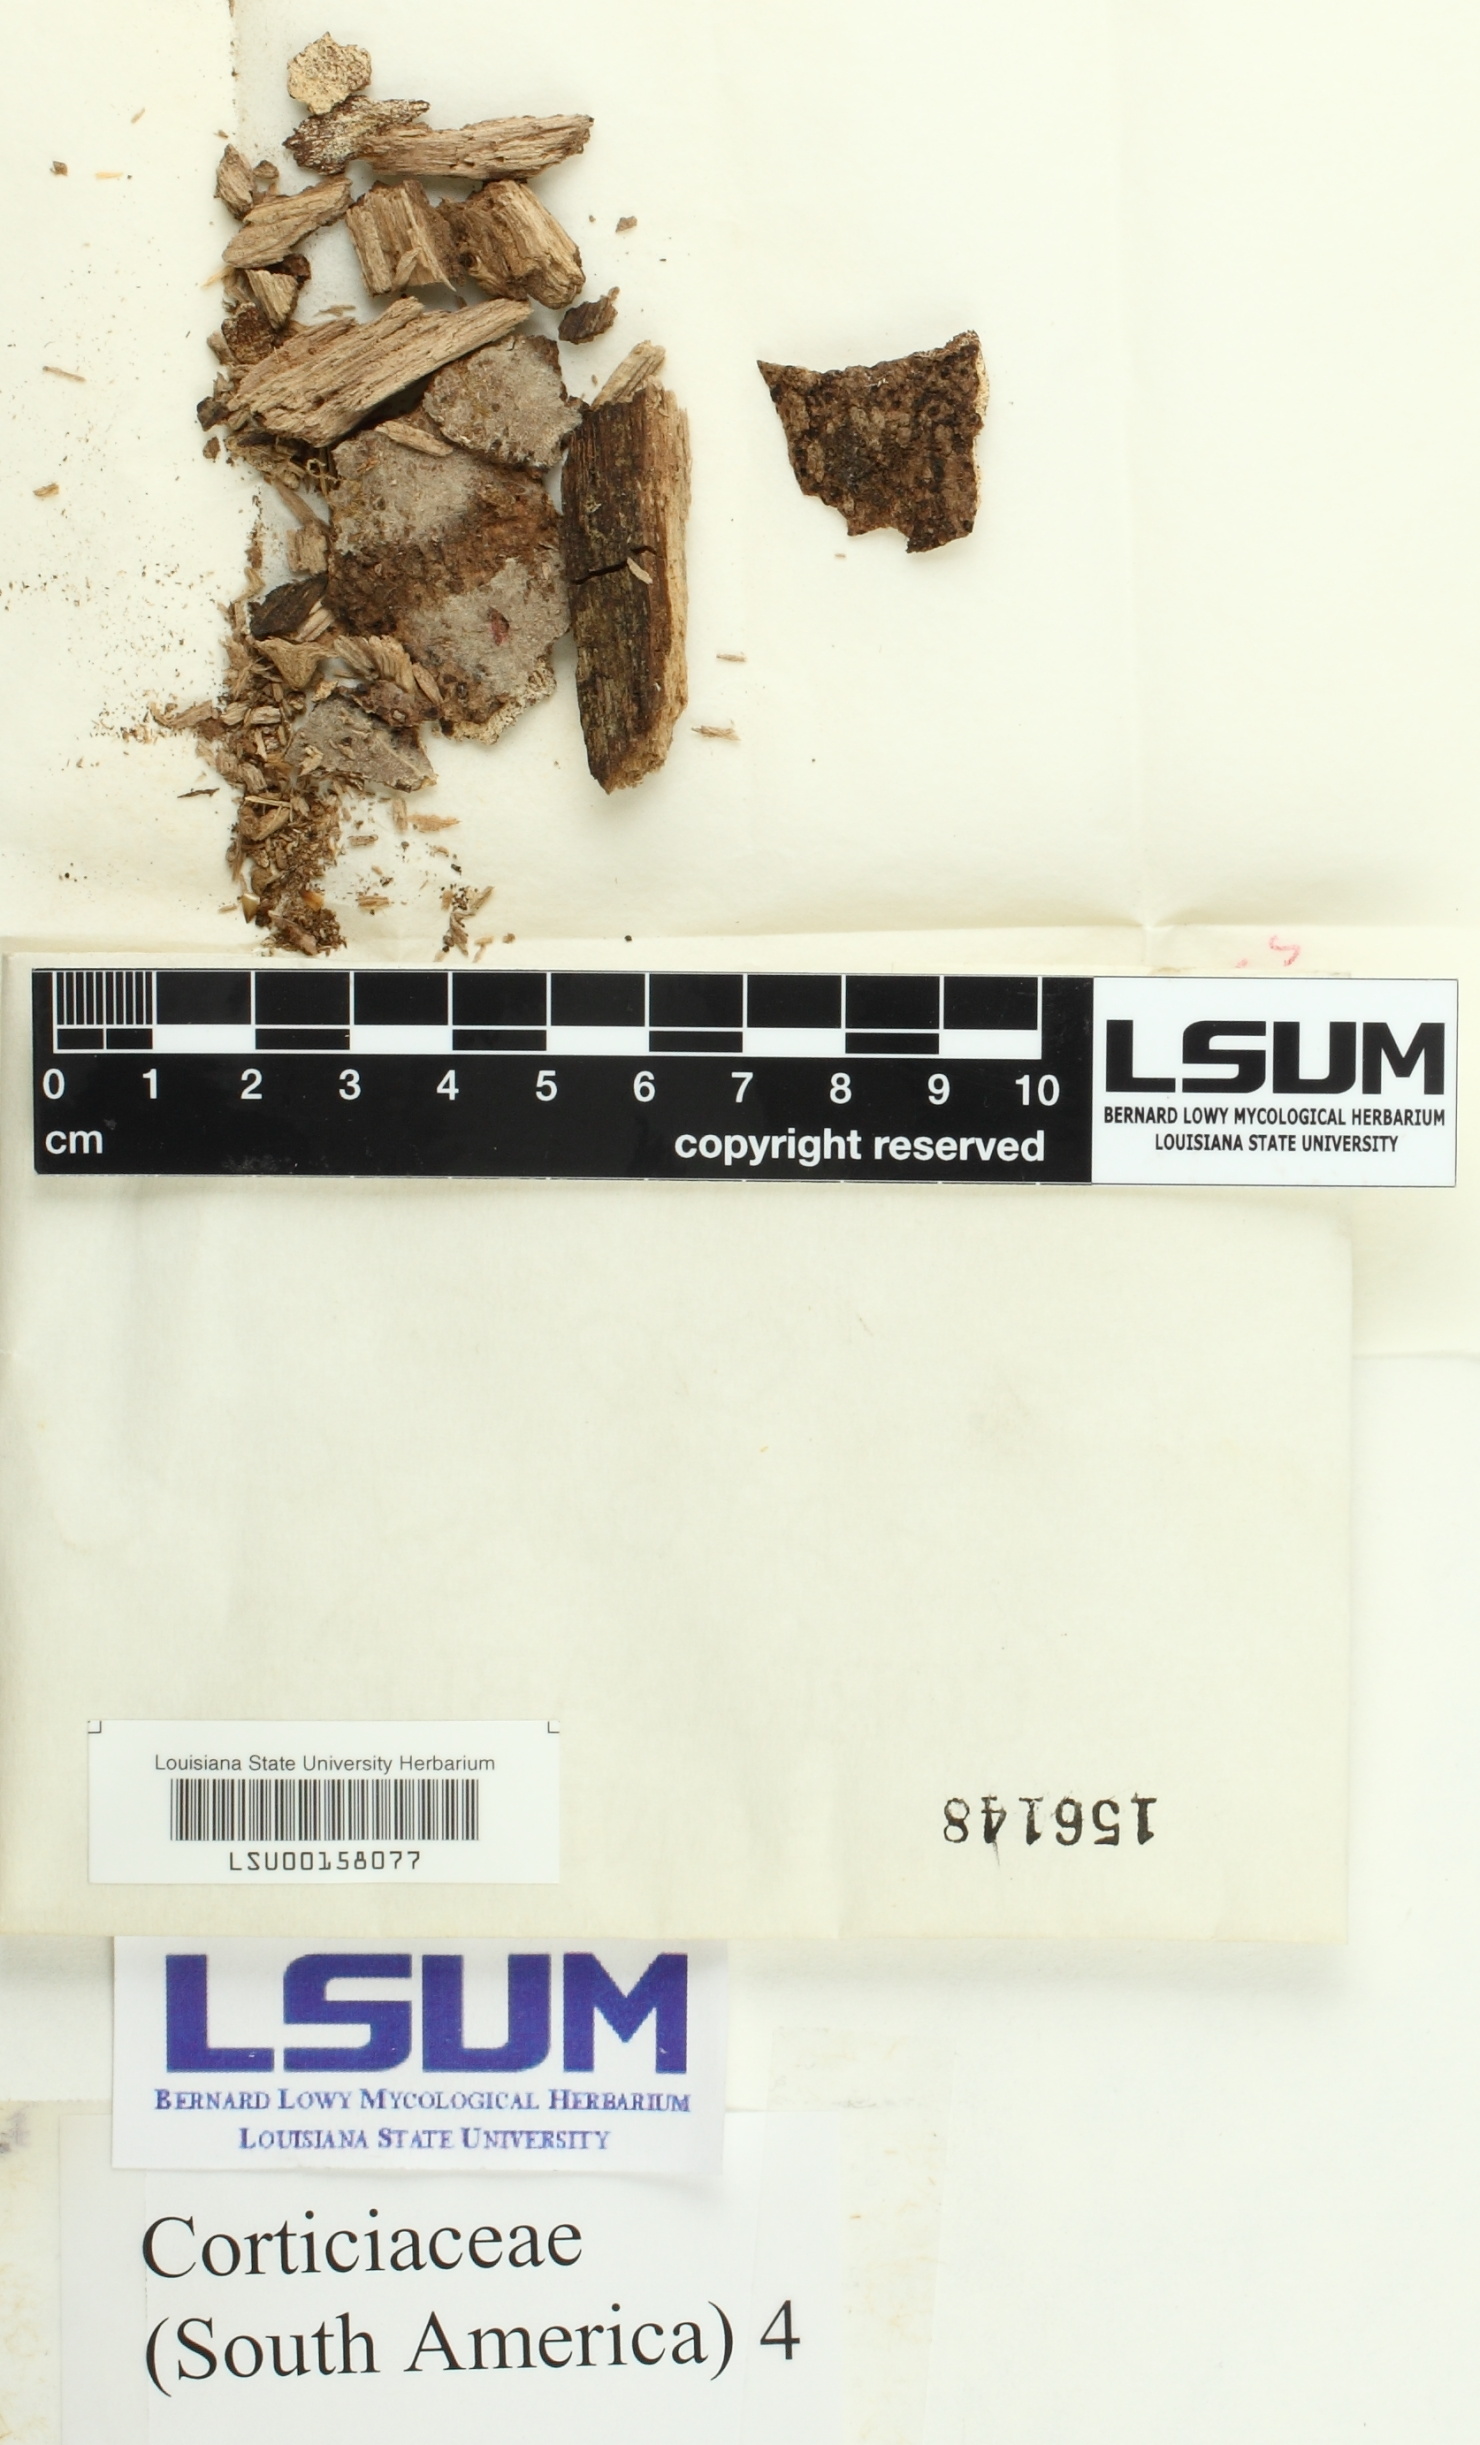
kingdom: Fungi
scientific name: Fungi
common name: Fungi
